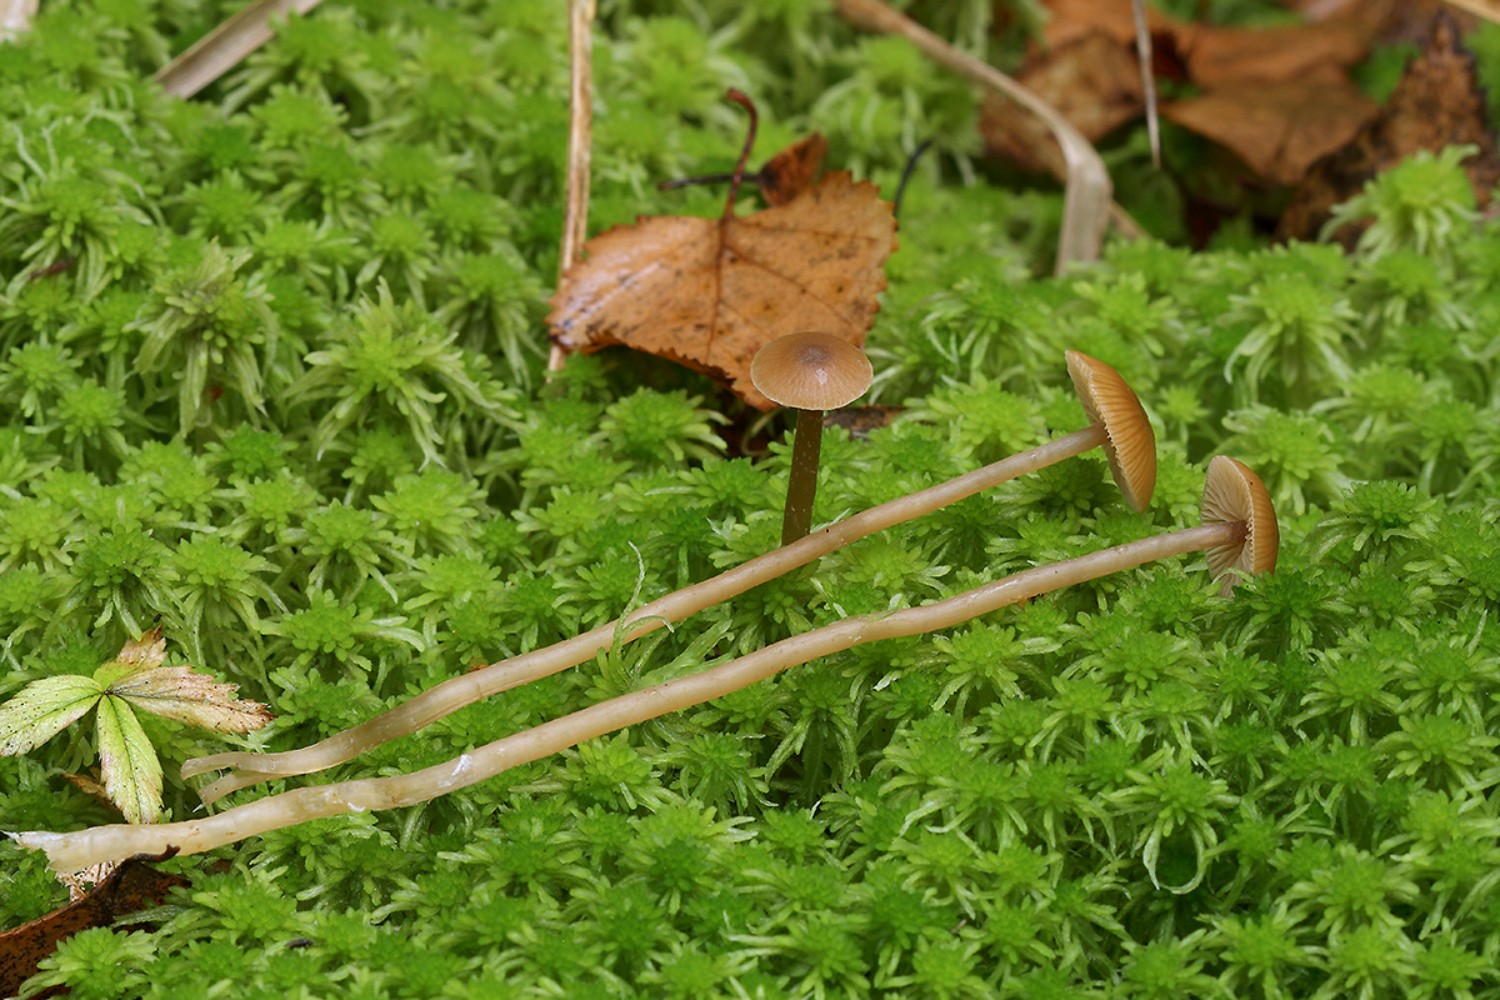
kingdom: Fungi
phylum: Basidiomycota
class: Agaricomycetes
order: Agaricales
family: Hymenogastraceae
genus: Galerina
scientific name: Galerina mairei
